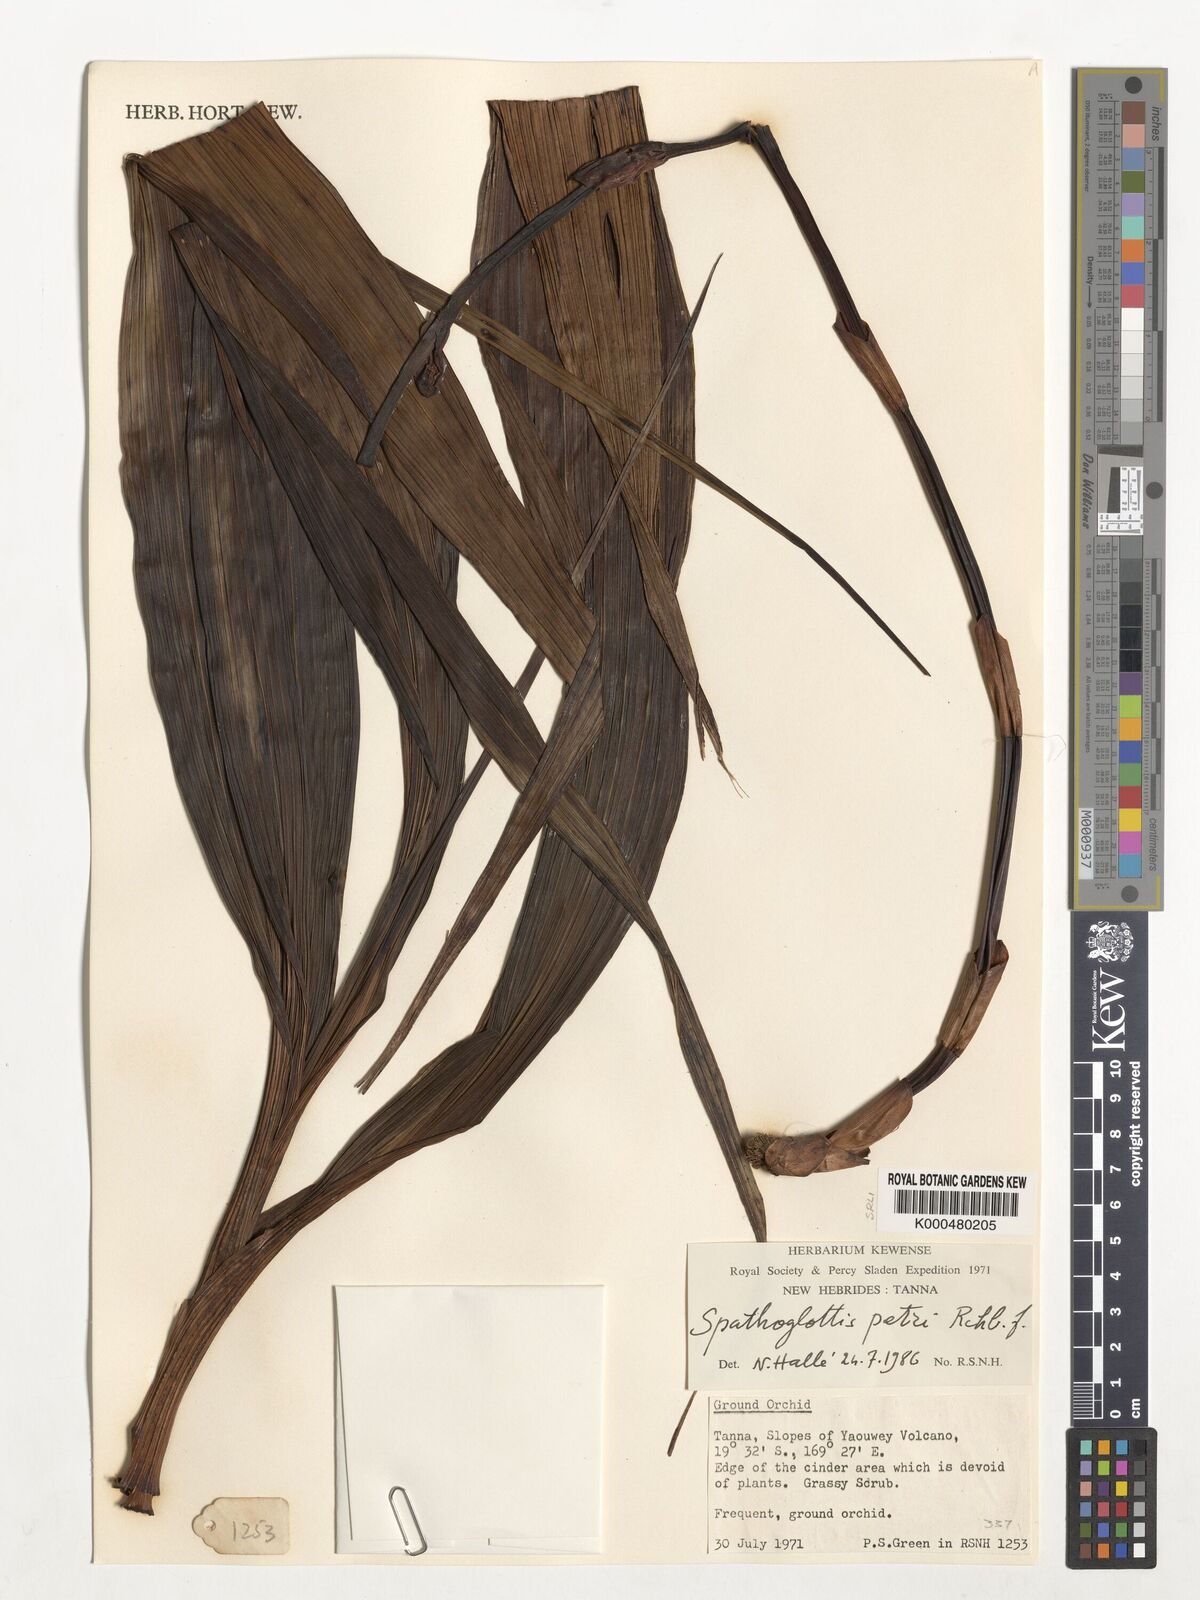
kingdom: Plantae
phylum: Tracheophyta
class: Liliopsida
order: Asparagales
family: Orchidaceae
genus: Spathoglottis
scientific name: Spathoglottis petri
